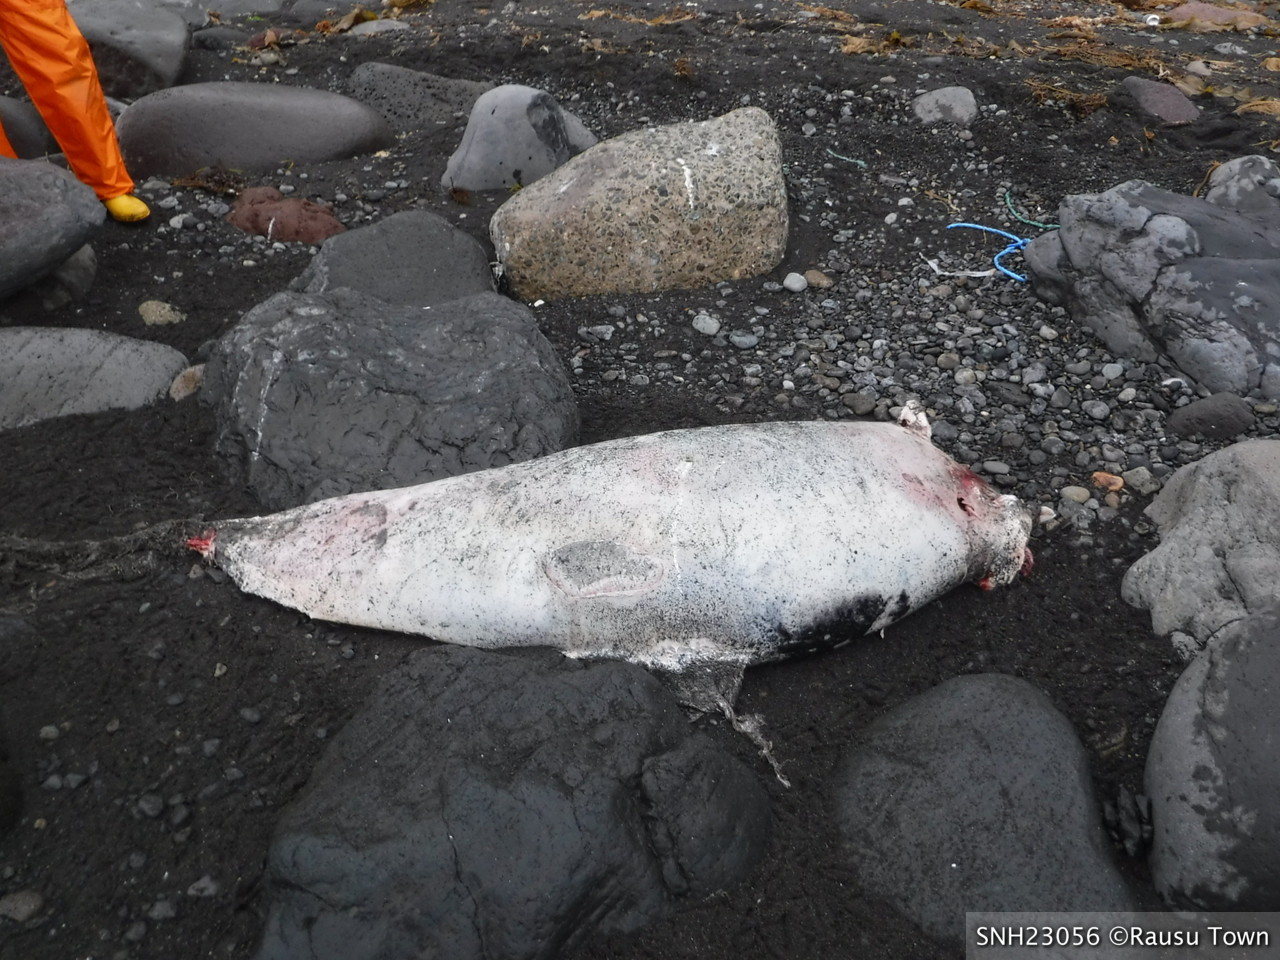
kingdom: Animalia
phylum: Chordata
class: Mammalia
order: Cetacea
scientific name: Cetacea
